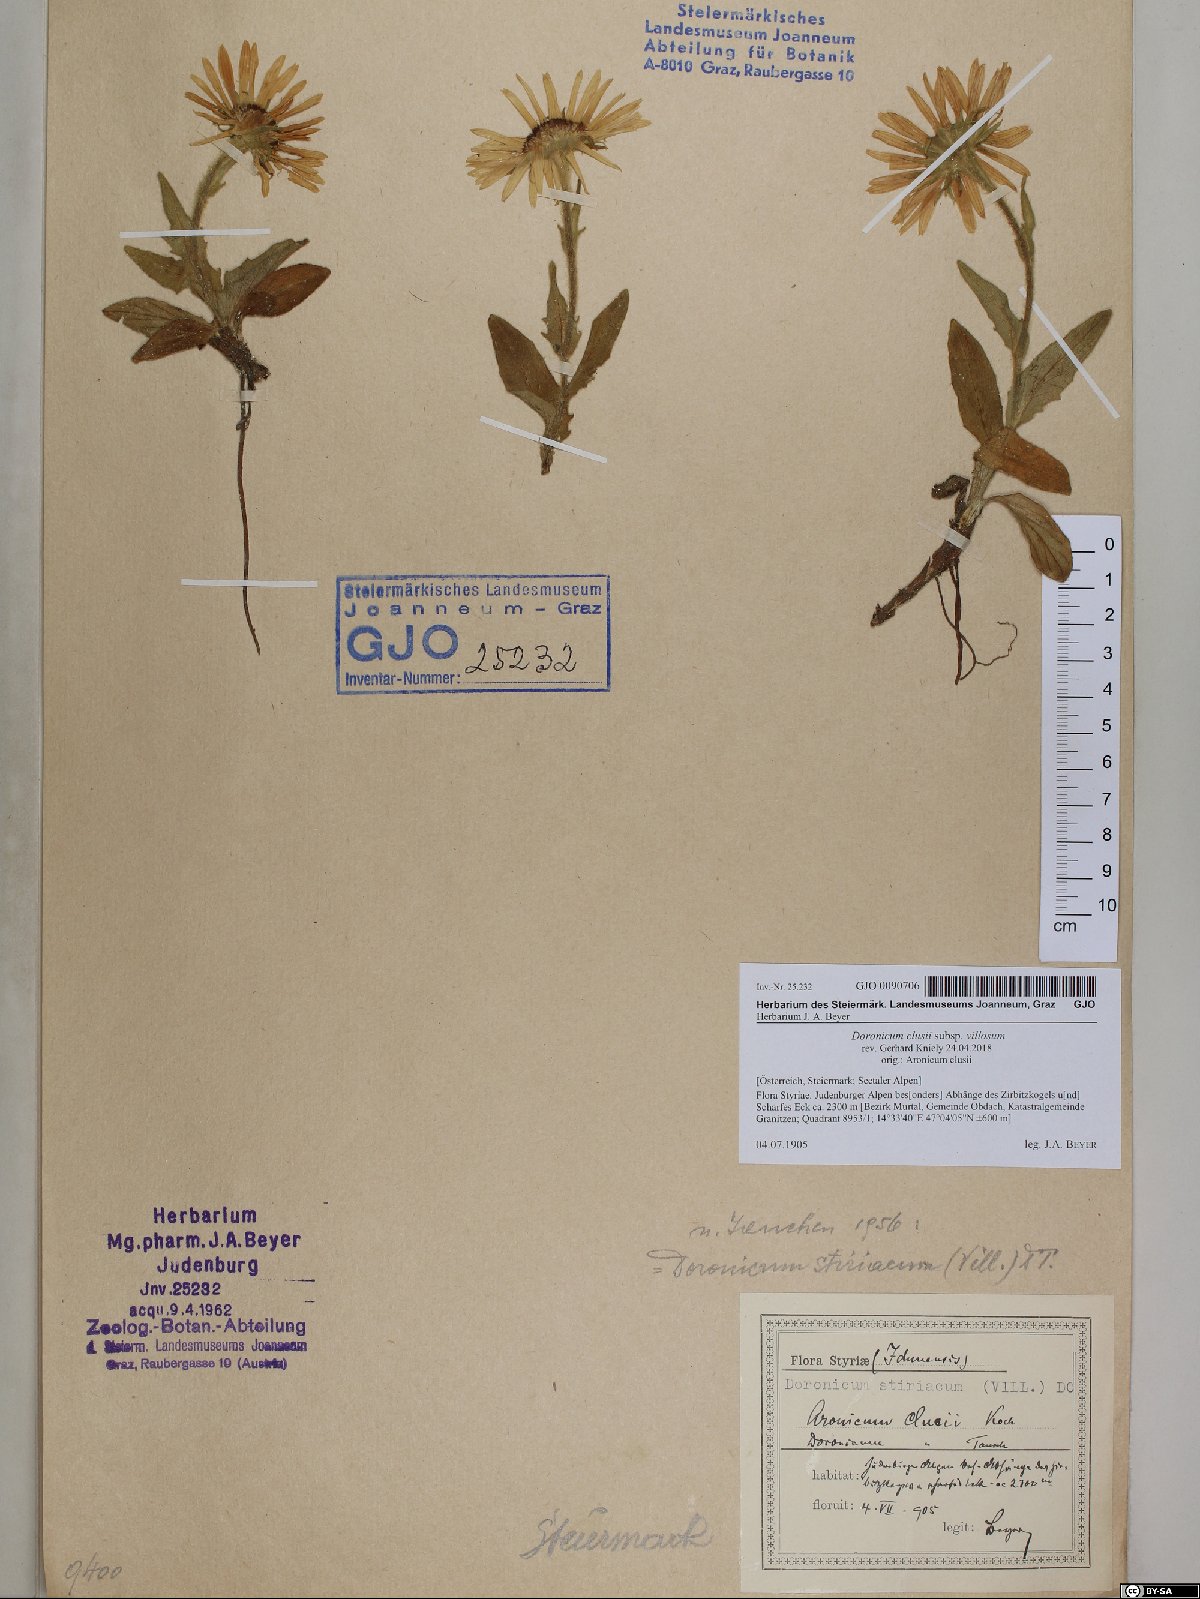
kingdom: Plantae
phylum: Tracheophyta
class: Magnoliopsida
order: Asterales
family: Asteraceae
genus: Doronicum
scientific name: Doronicum clusii
